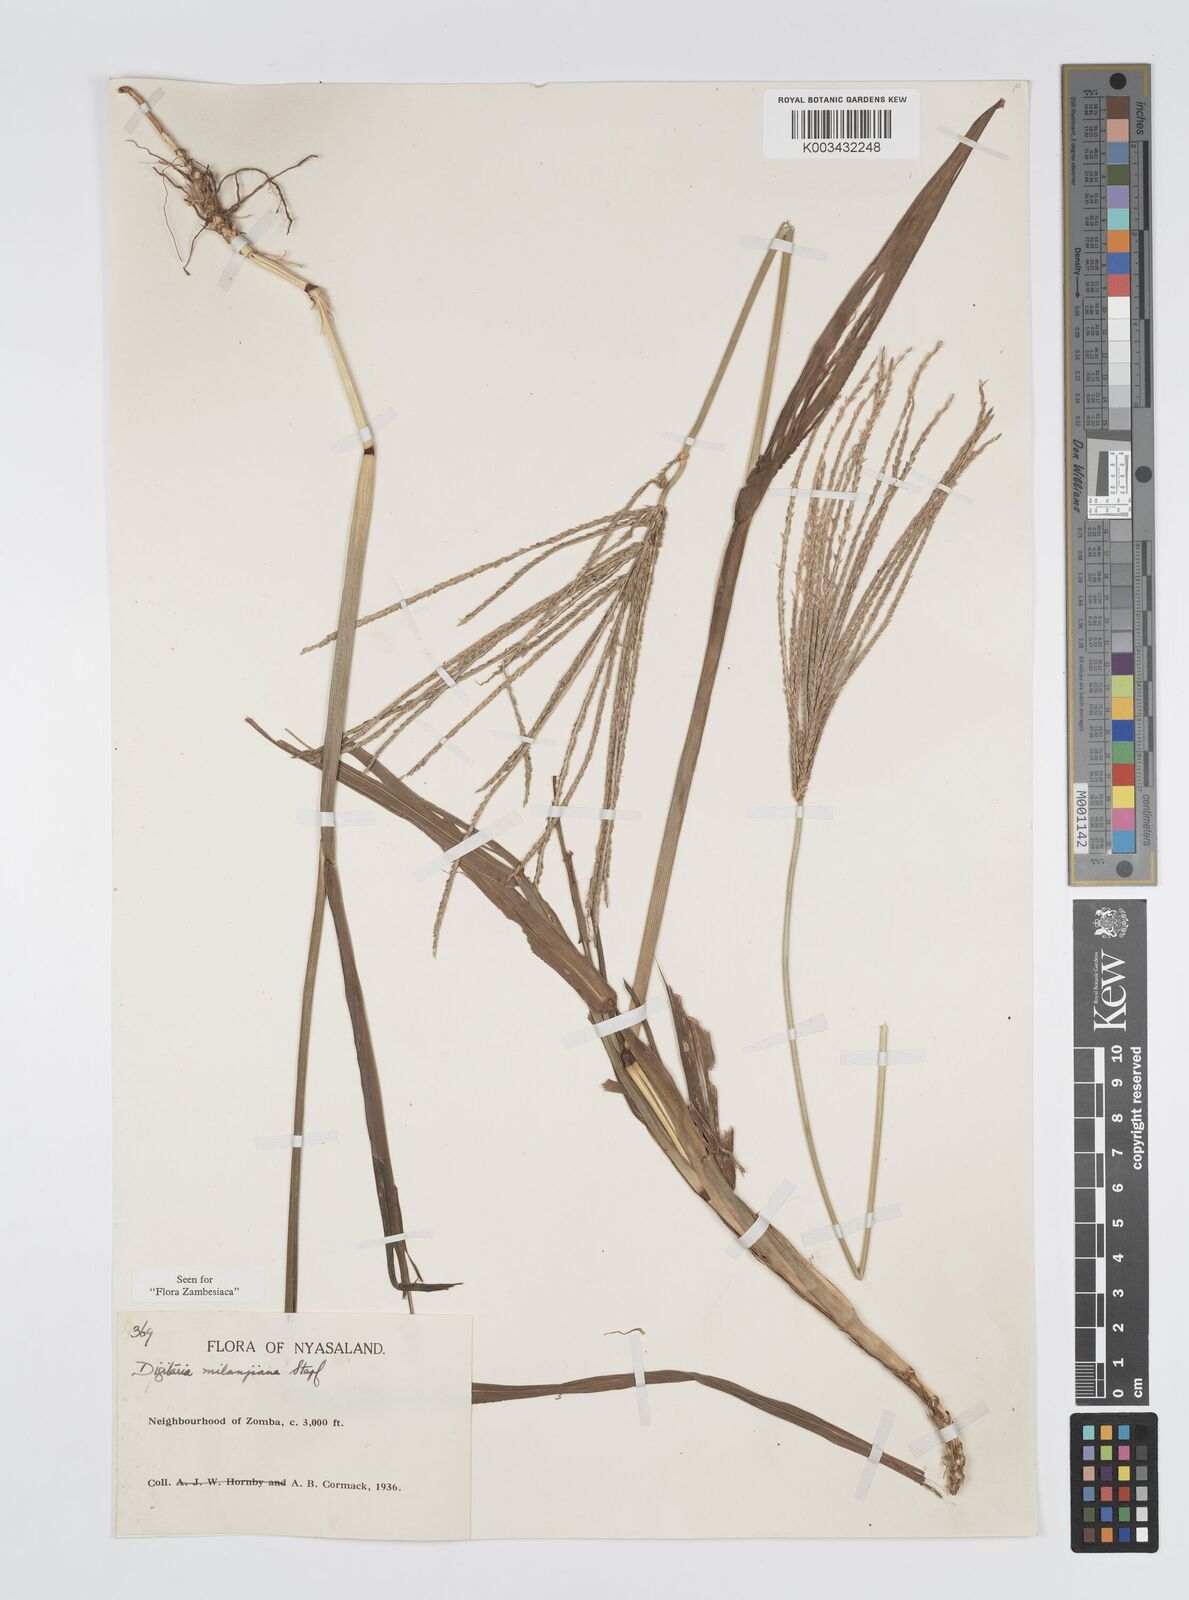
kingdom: Plantae
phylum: Tracheophyta
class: Liliopsida
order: Poales
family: Poaceae
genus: Digitaria
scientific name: Digitaria milanjiana
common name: Madagascar crabgrass
